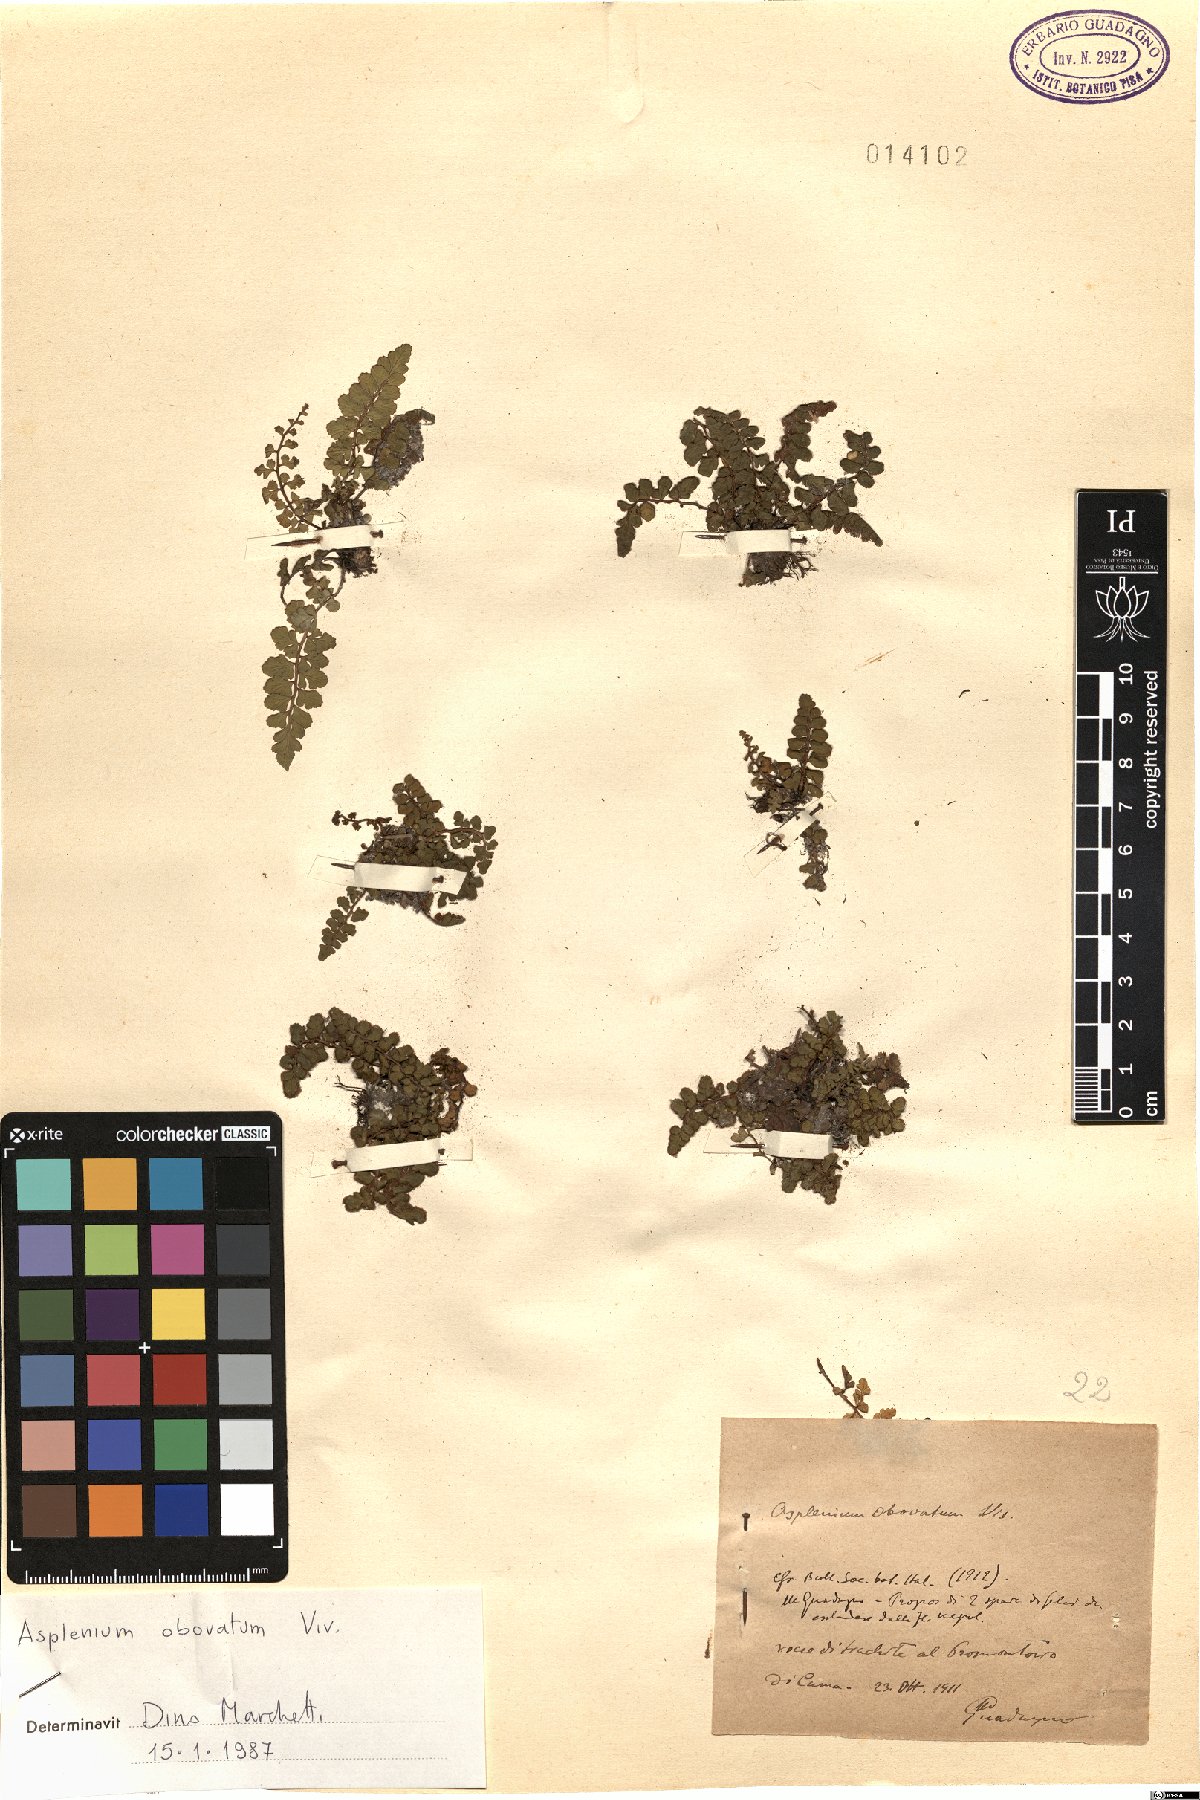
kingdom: Plantae
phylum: Tracheophyta
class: Polypodiopsida
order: Polypodiales
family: Aspleniaceae
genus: Asplenium
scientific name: Asplenium obovatum
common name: Lanceolate spleenwort
